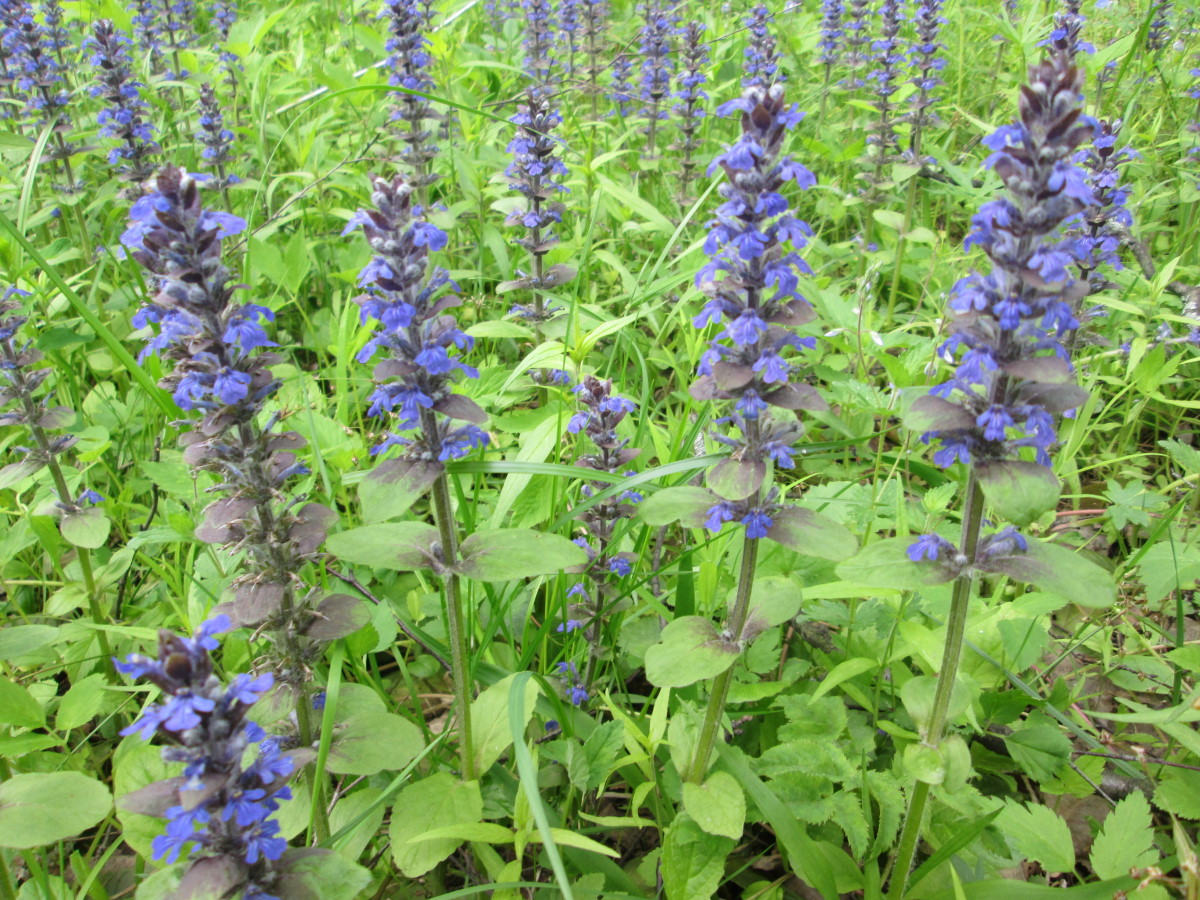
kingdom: Plantae
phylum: Tracheophyta
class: Magnoliopsida
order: Lamiales
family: Lamiaceae
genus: Ajuga
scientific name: Ajuga reptans
